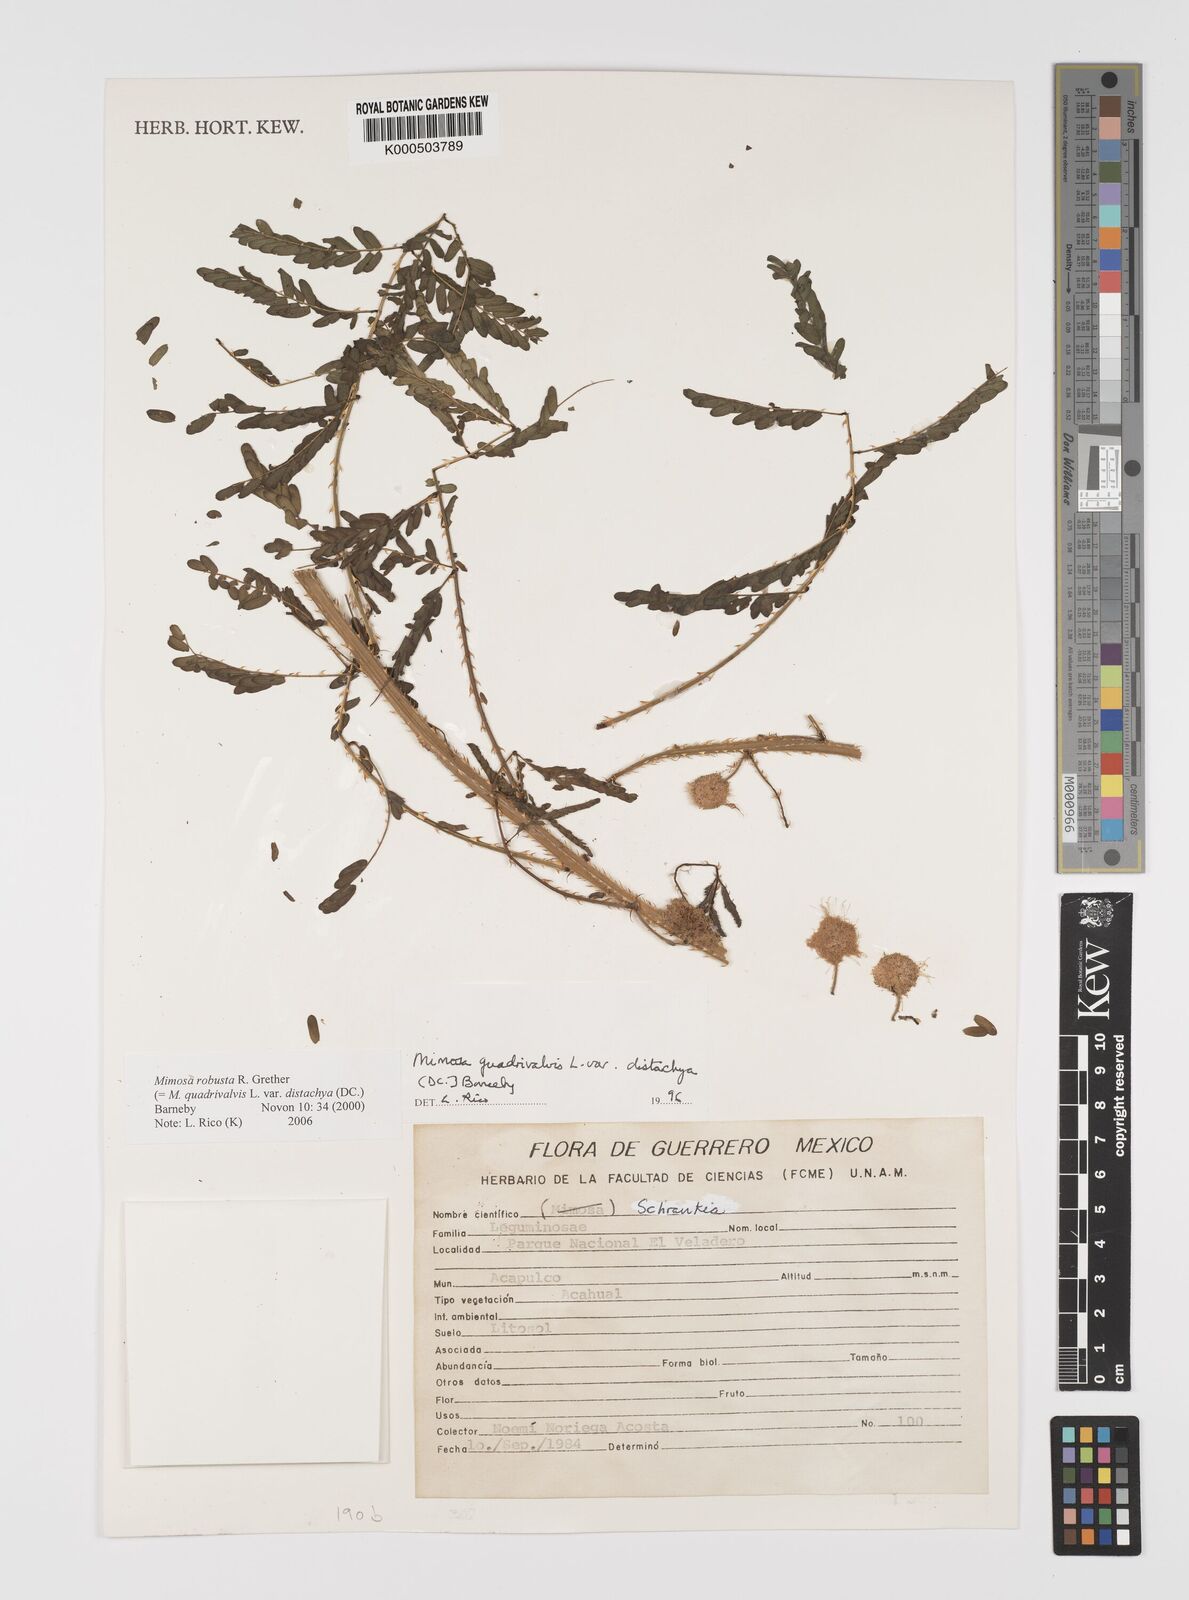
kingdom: Plantae
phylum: Tracheophyta
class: Magnoliopsida
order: Fabales
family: Fabaceae
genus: Mimosa
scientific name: Mimosa robusta
